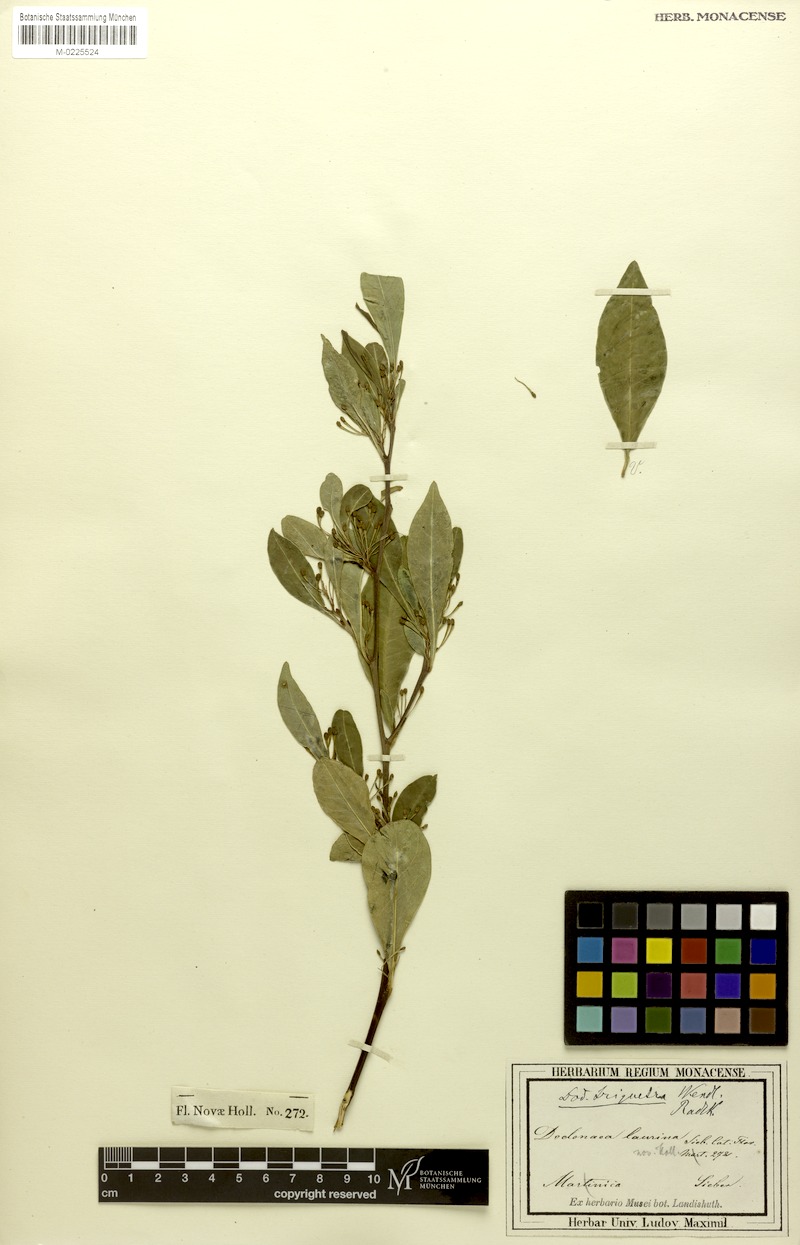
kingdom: Plantae
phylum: Tracheophyta
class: Magnoliopsida
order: Sapindales
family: Sapindaceae
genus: Dodonaea
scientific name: Dodonaea triquetra
